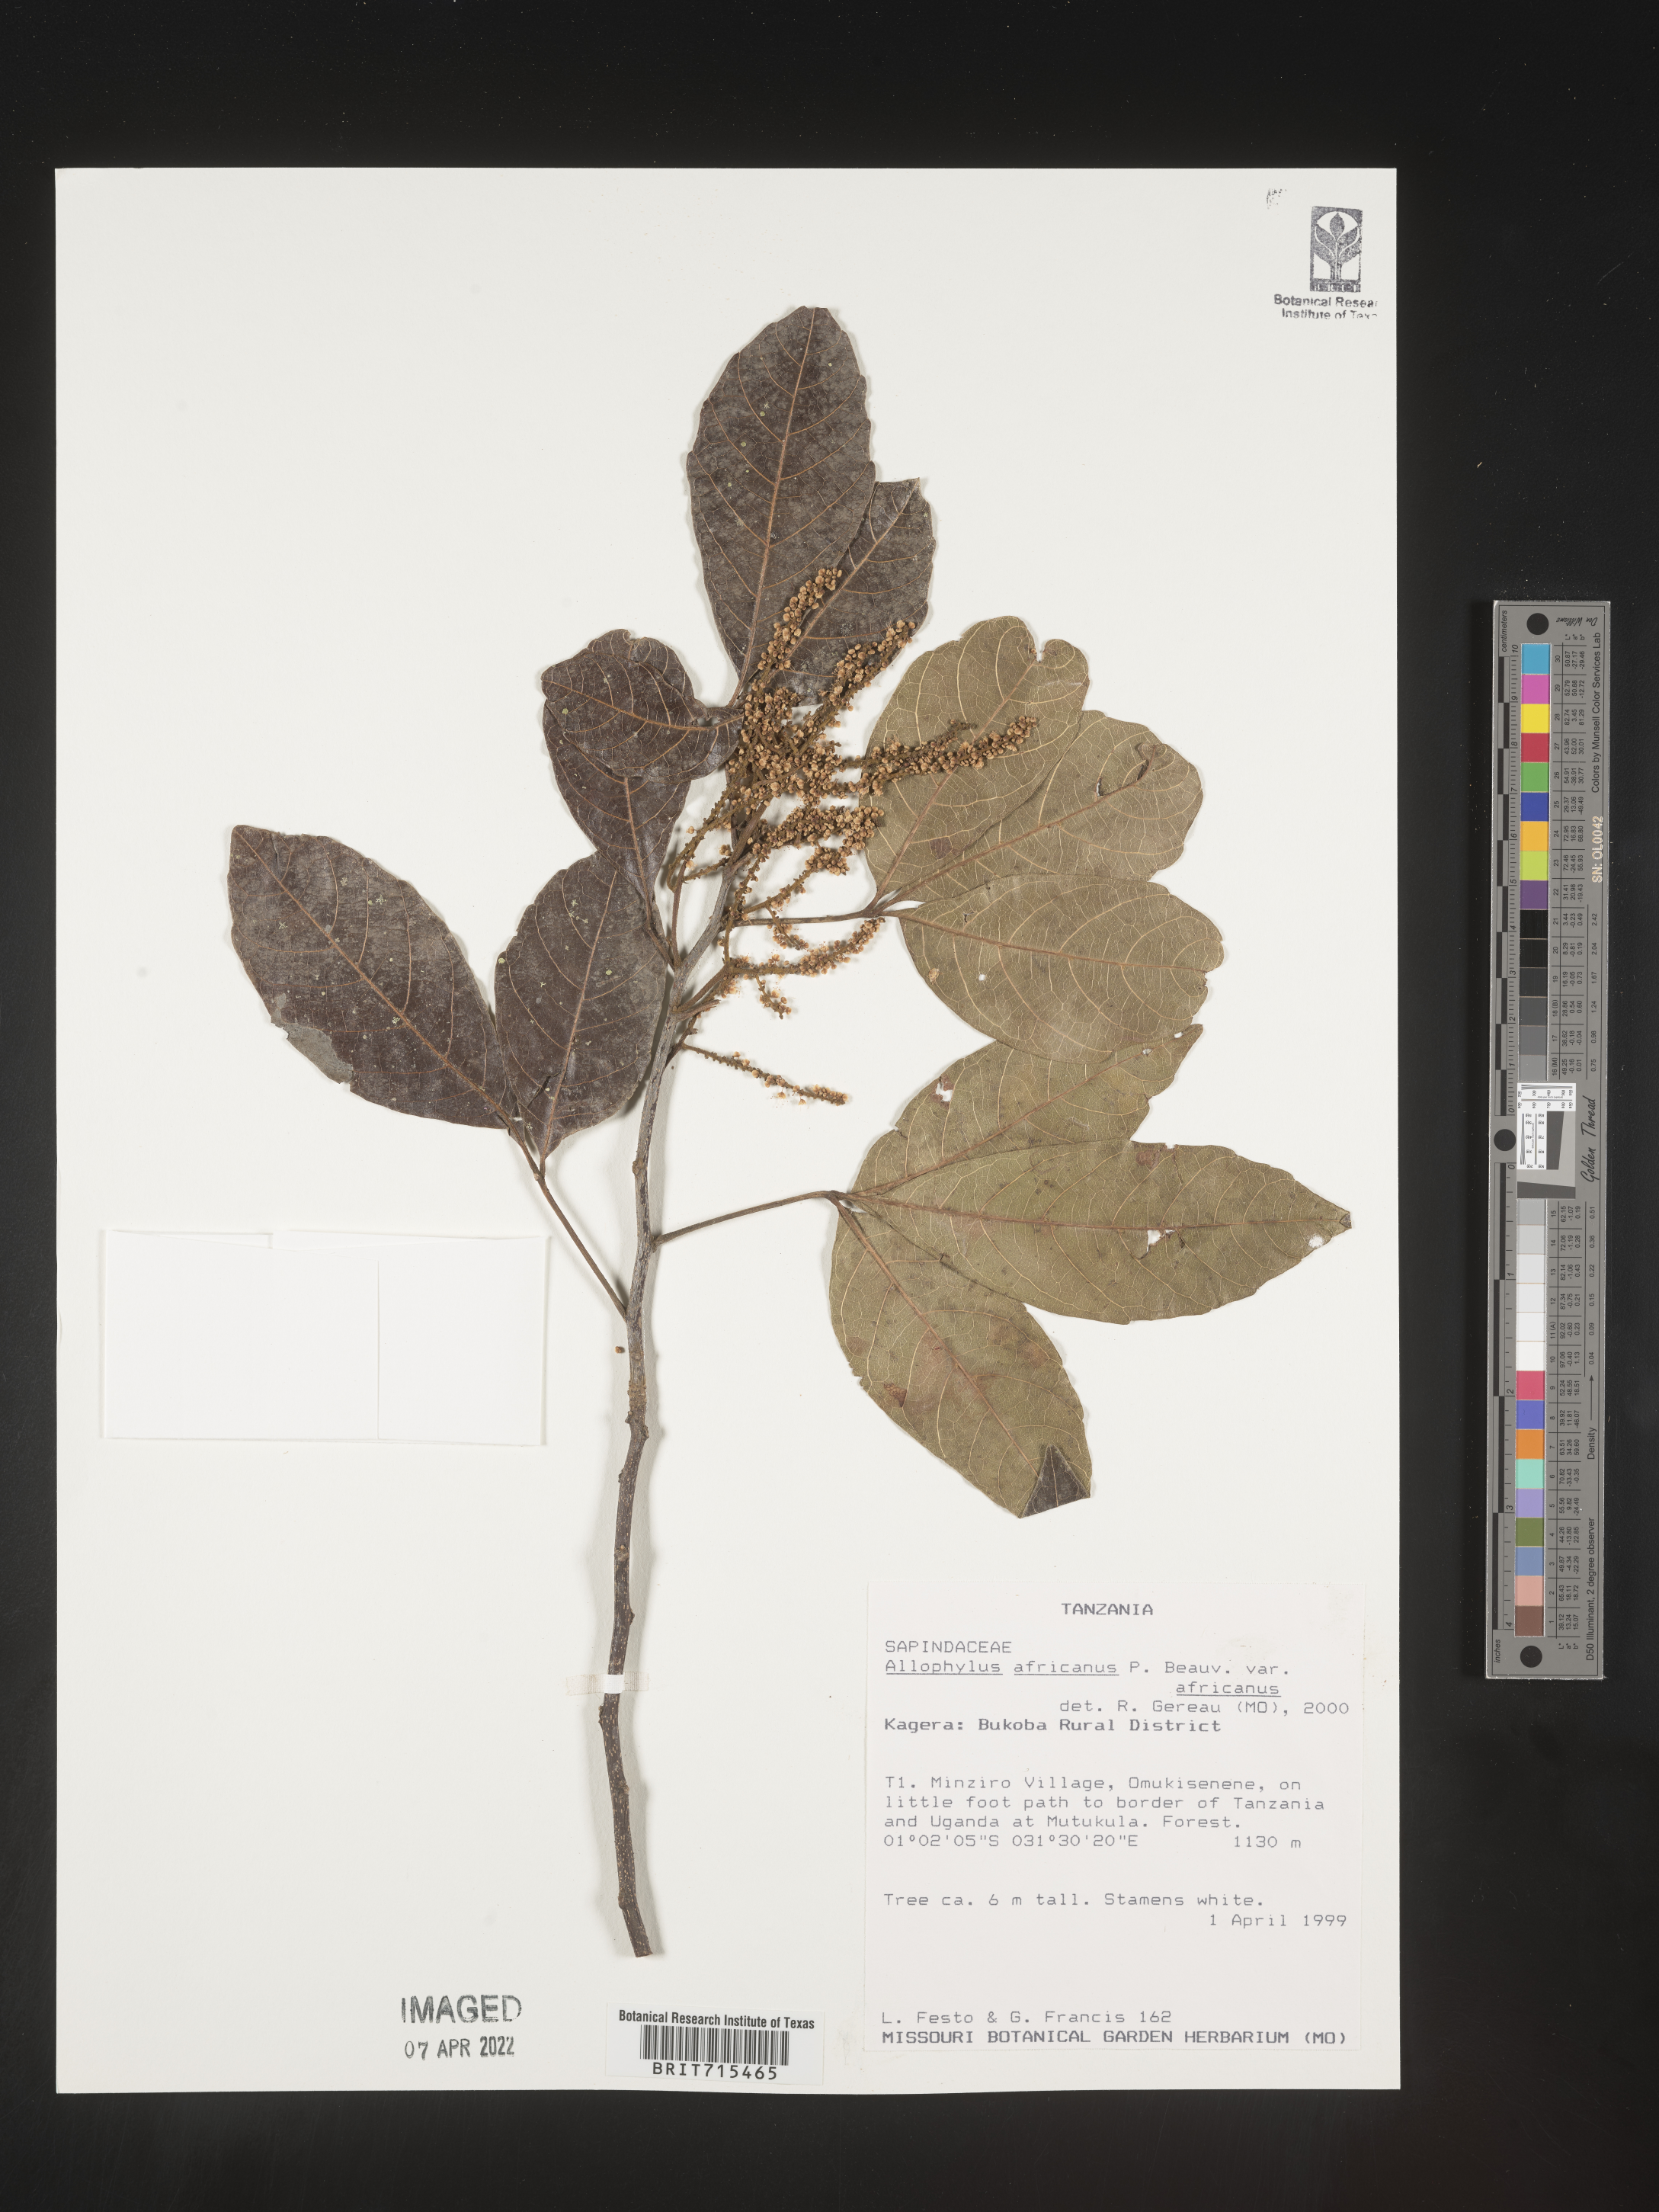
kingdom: Plantae
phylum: Tracheophyta
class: Magnoliopsida
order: Sapindales
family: Sapindaceae
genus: Allophylus
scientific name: Allophylus africanus
